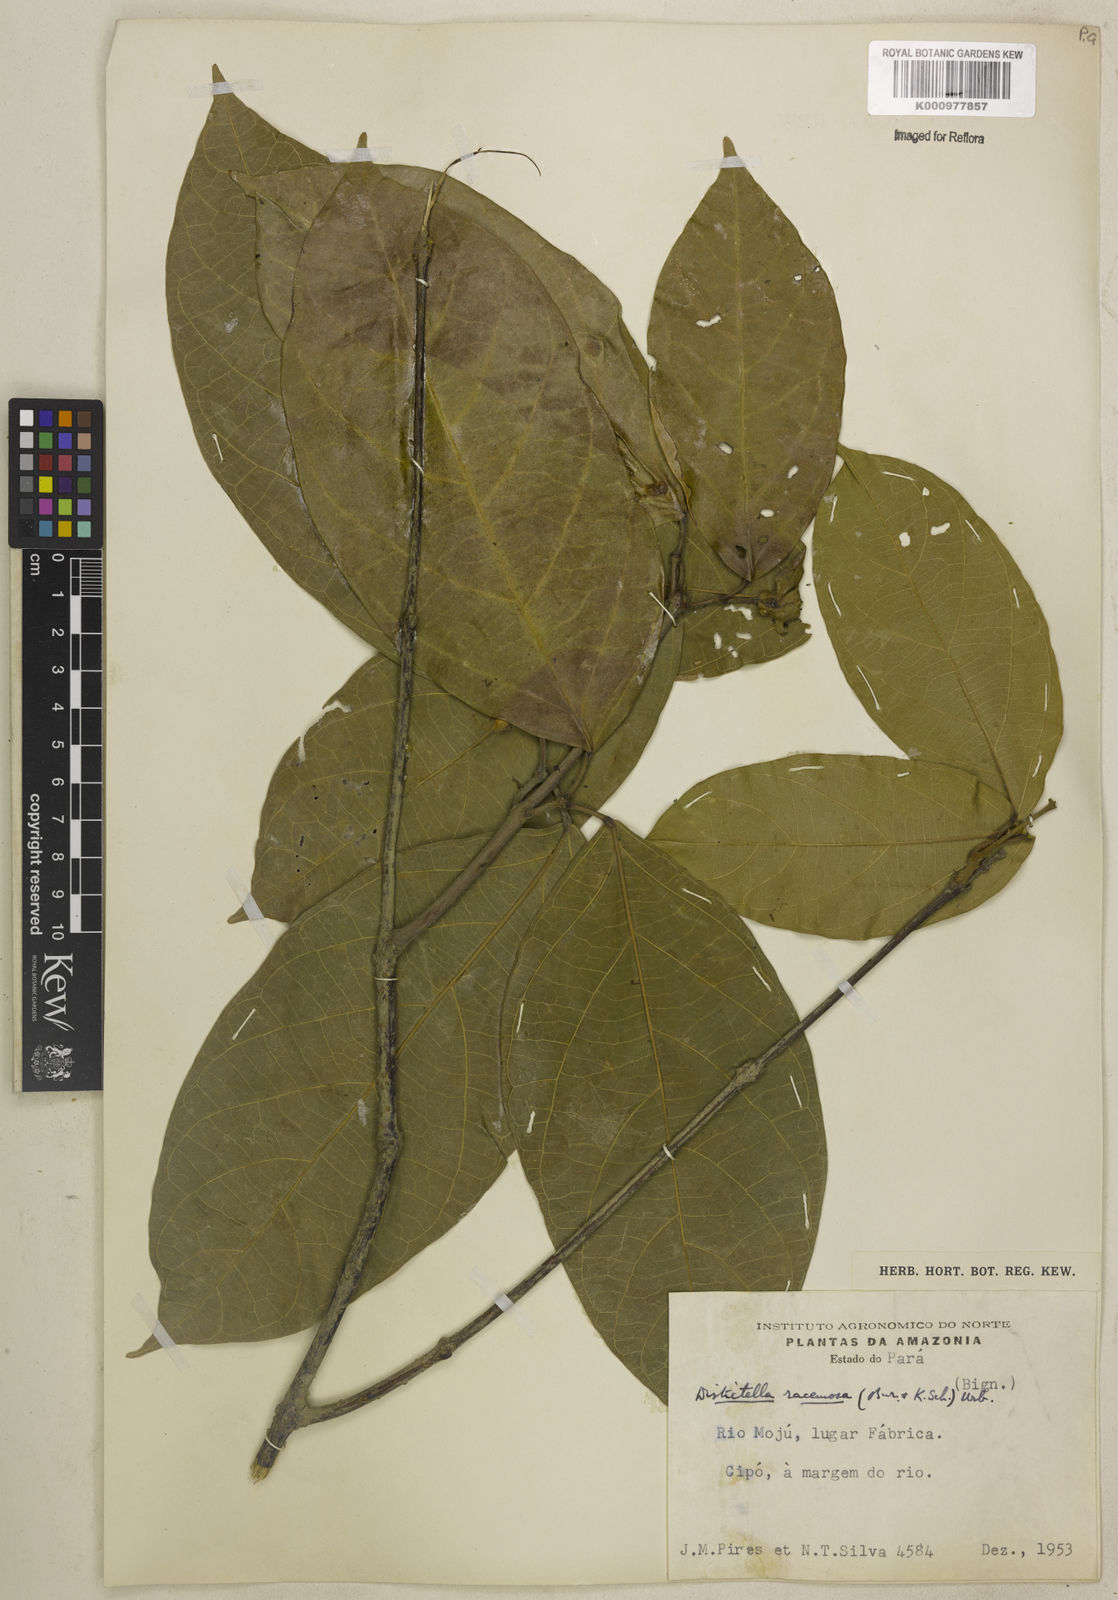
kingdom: Plantae
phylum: Tracheophyta
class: Magnoliopsida
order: Lamiales
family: Bignoniaceae
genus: Amphilophium
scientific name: Amphilophium racemosum
